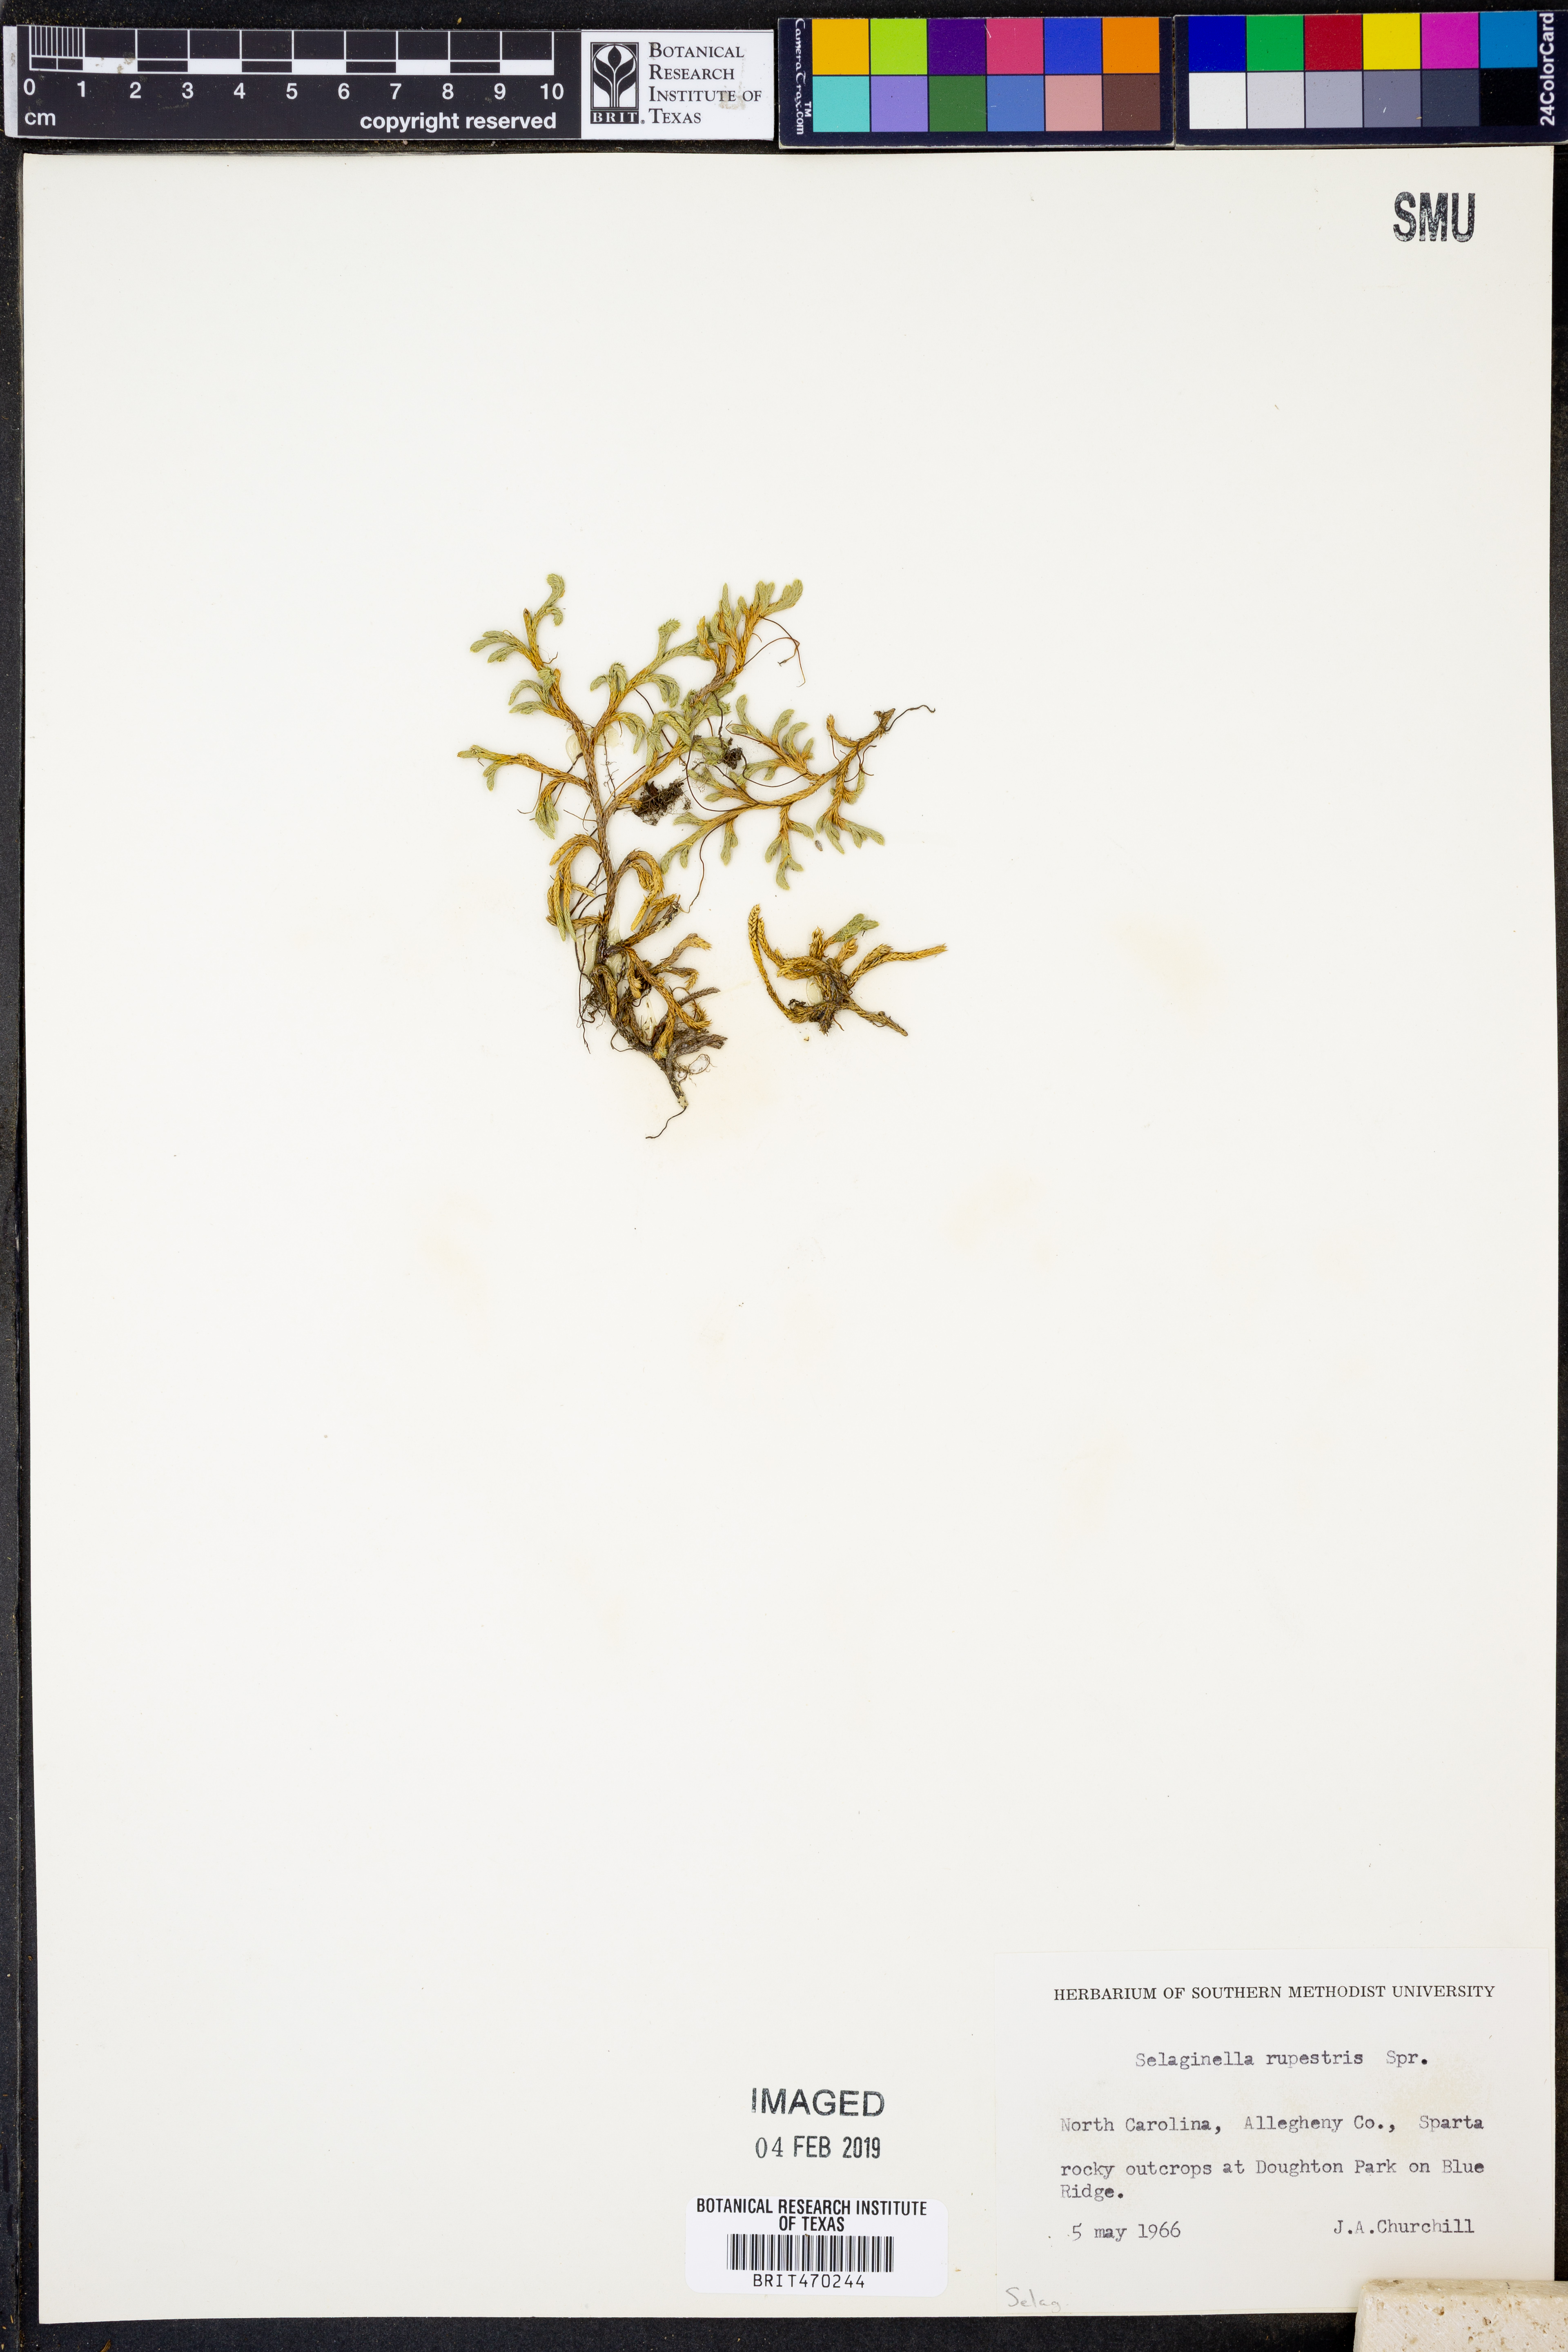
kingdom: Plantae
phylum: Tracheophyta
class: Lycopodiopsida
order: Selaginellales
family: Selaginellaceae
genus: Selaginella
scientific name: Selaginella rupestris
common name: Dwarf spikemoss
